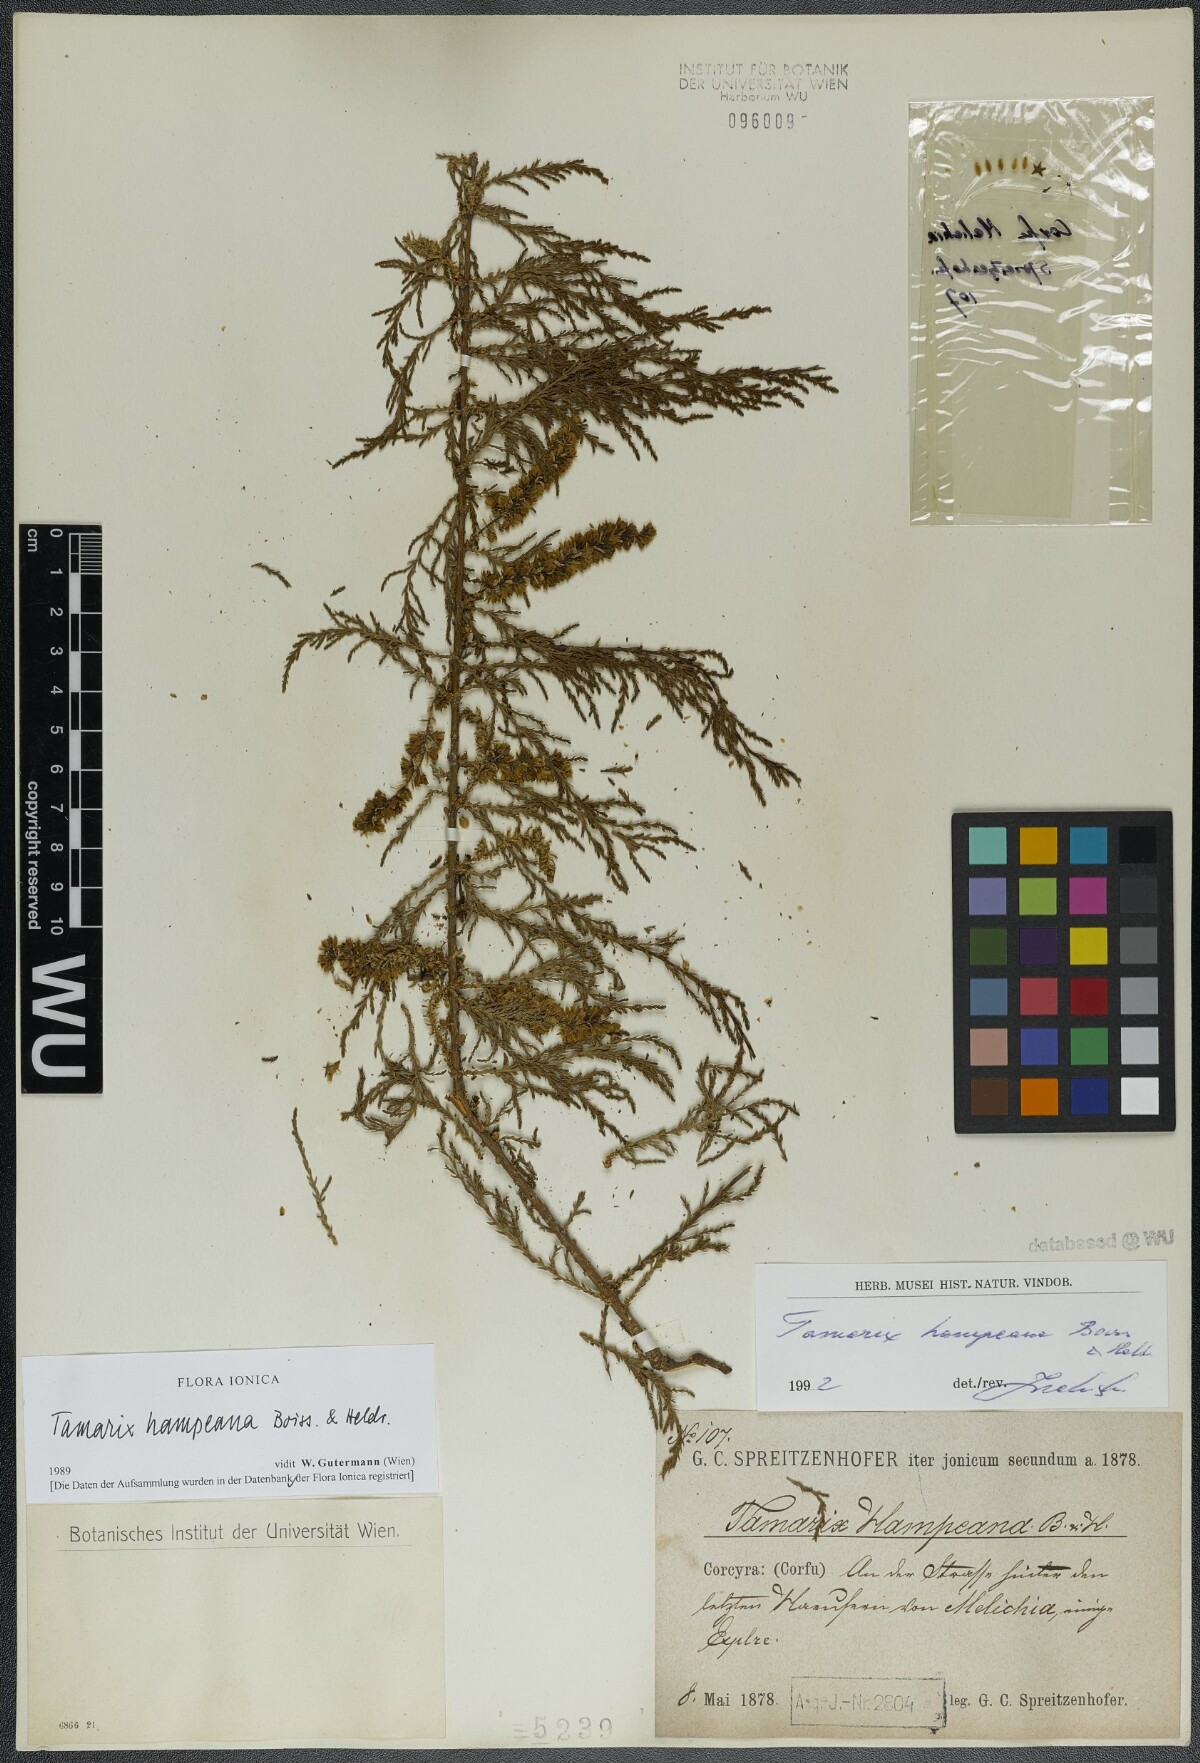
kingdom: Plantae
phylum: Tracheophyta
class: Magnoliopsida
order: Caryophyllales
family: Tamaricaceae
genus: Tamarix
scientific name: Tamarix hampeana
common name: Hampe’s tamarisk
